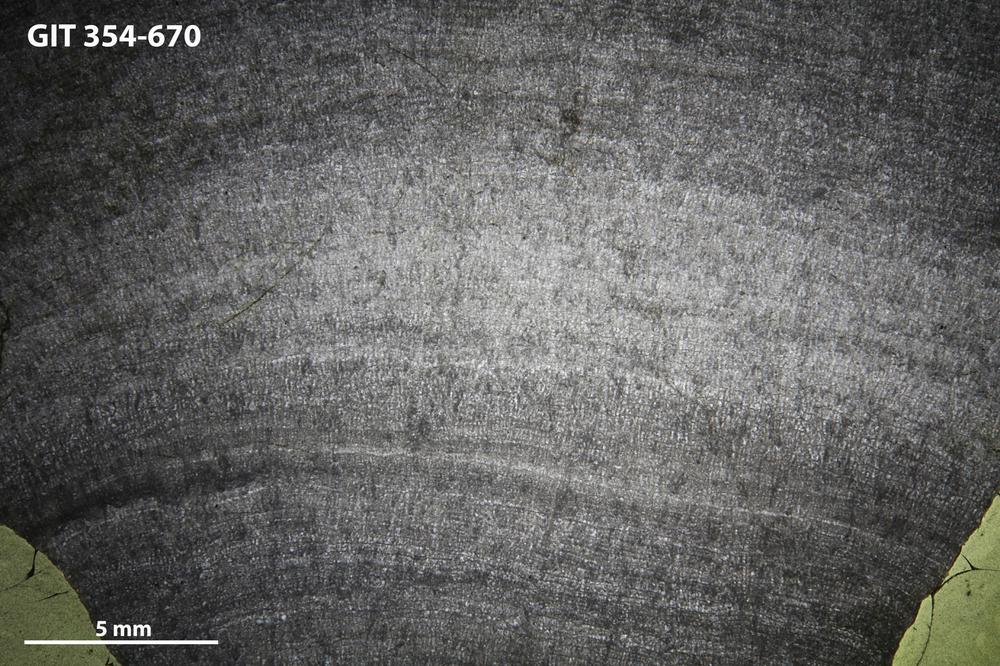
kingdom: Animalia
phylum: Porifera
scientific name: Porifera
